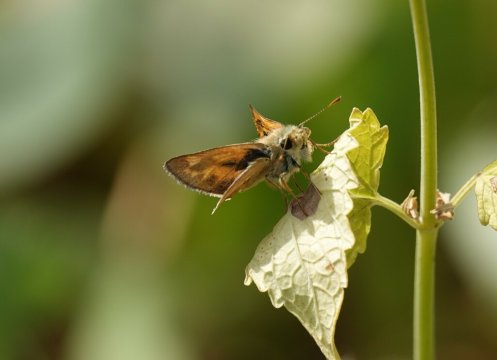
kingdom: Animalia
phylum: Arthropoda
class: Insecta
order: Lepidoptera
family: Hesperiidae
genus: Ochlodes
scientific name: Ochlodes sylvanoides
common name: Woodland Skipper
